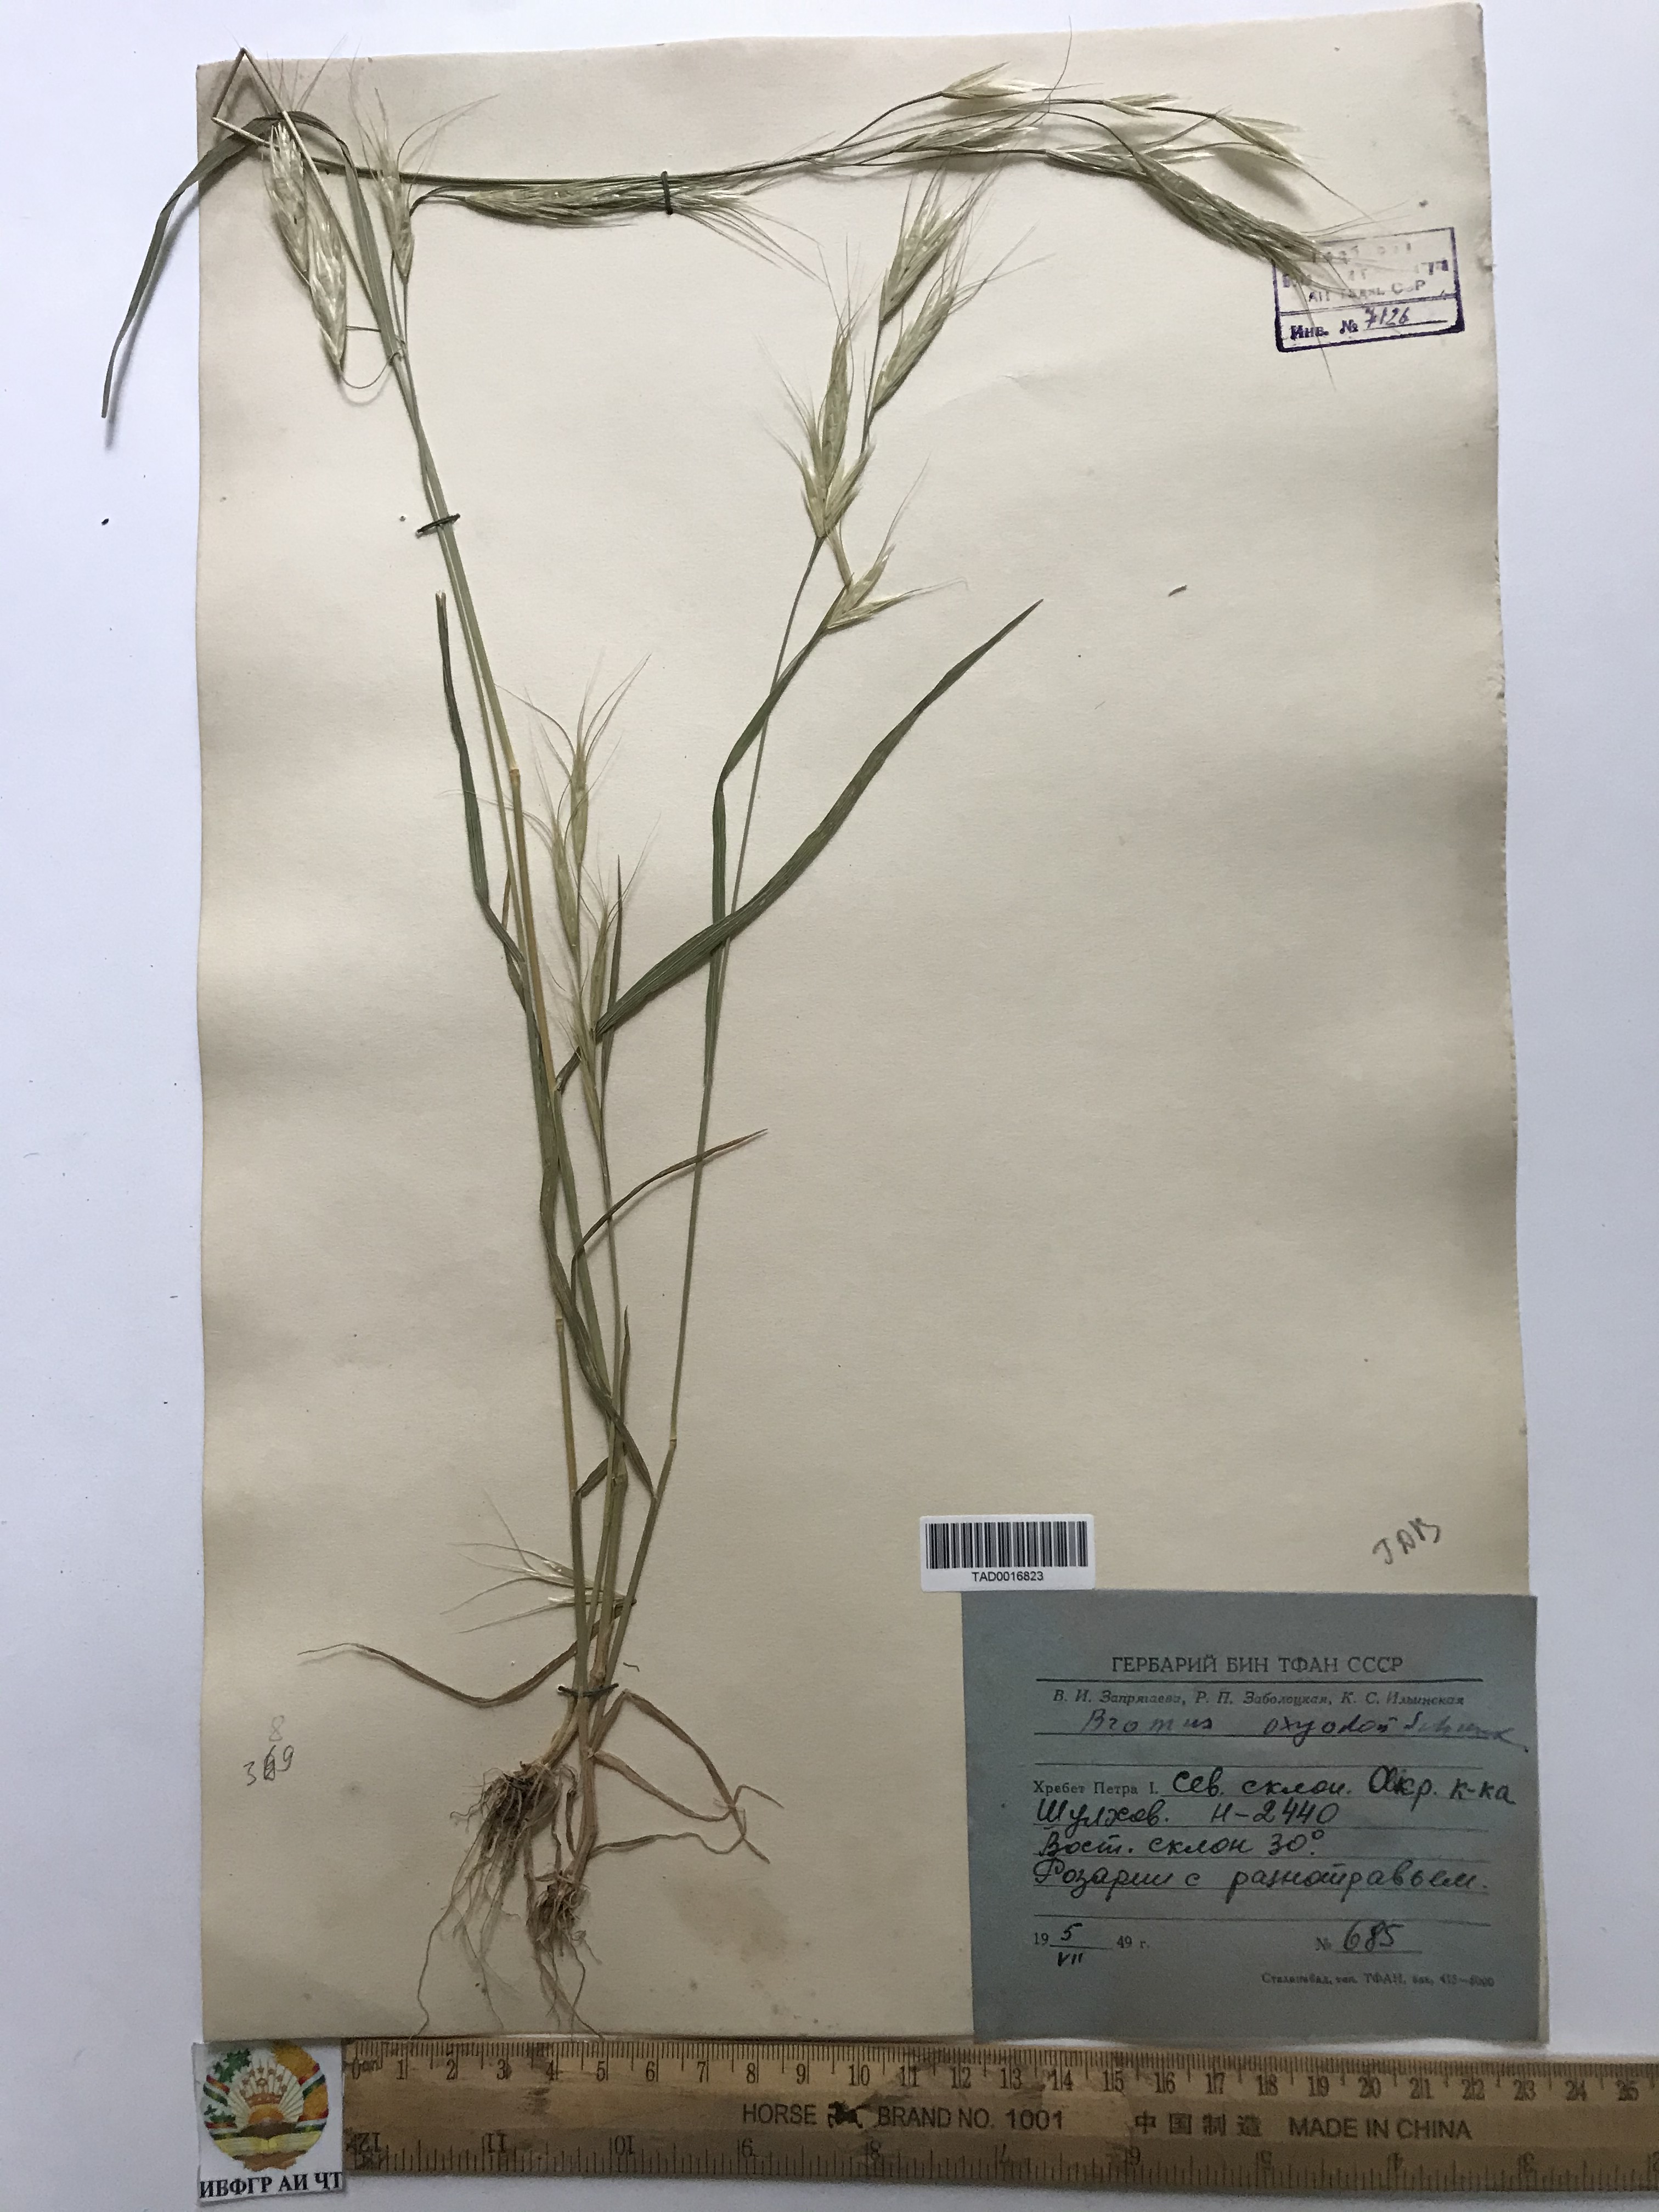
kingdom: Plantae
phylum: Tracheophyta
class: Liliopsida
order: Poales
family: Poaceae
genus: Bromus
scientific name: Bromus oxyodon
